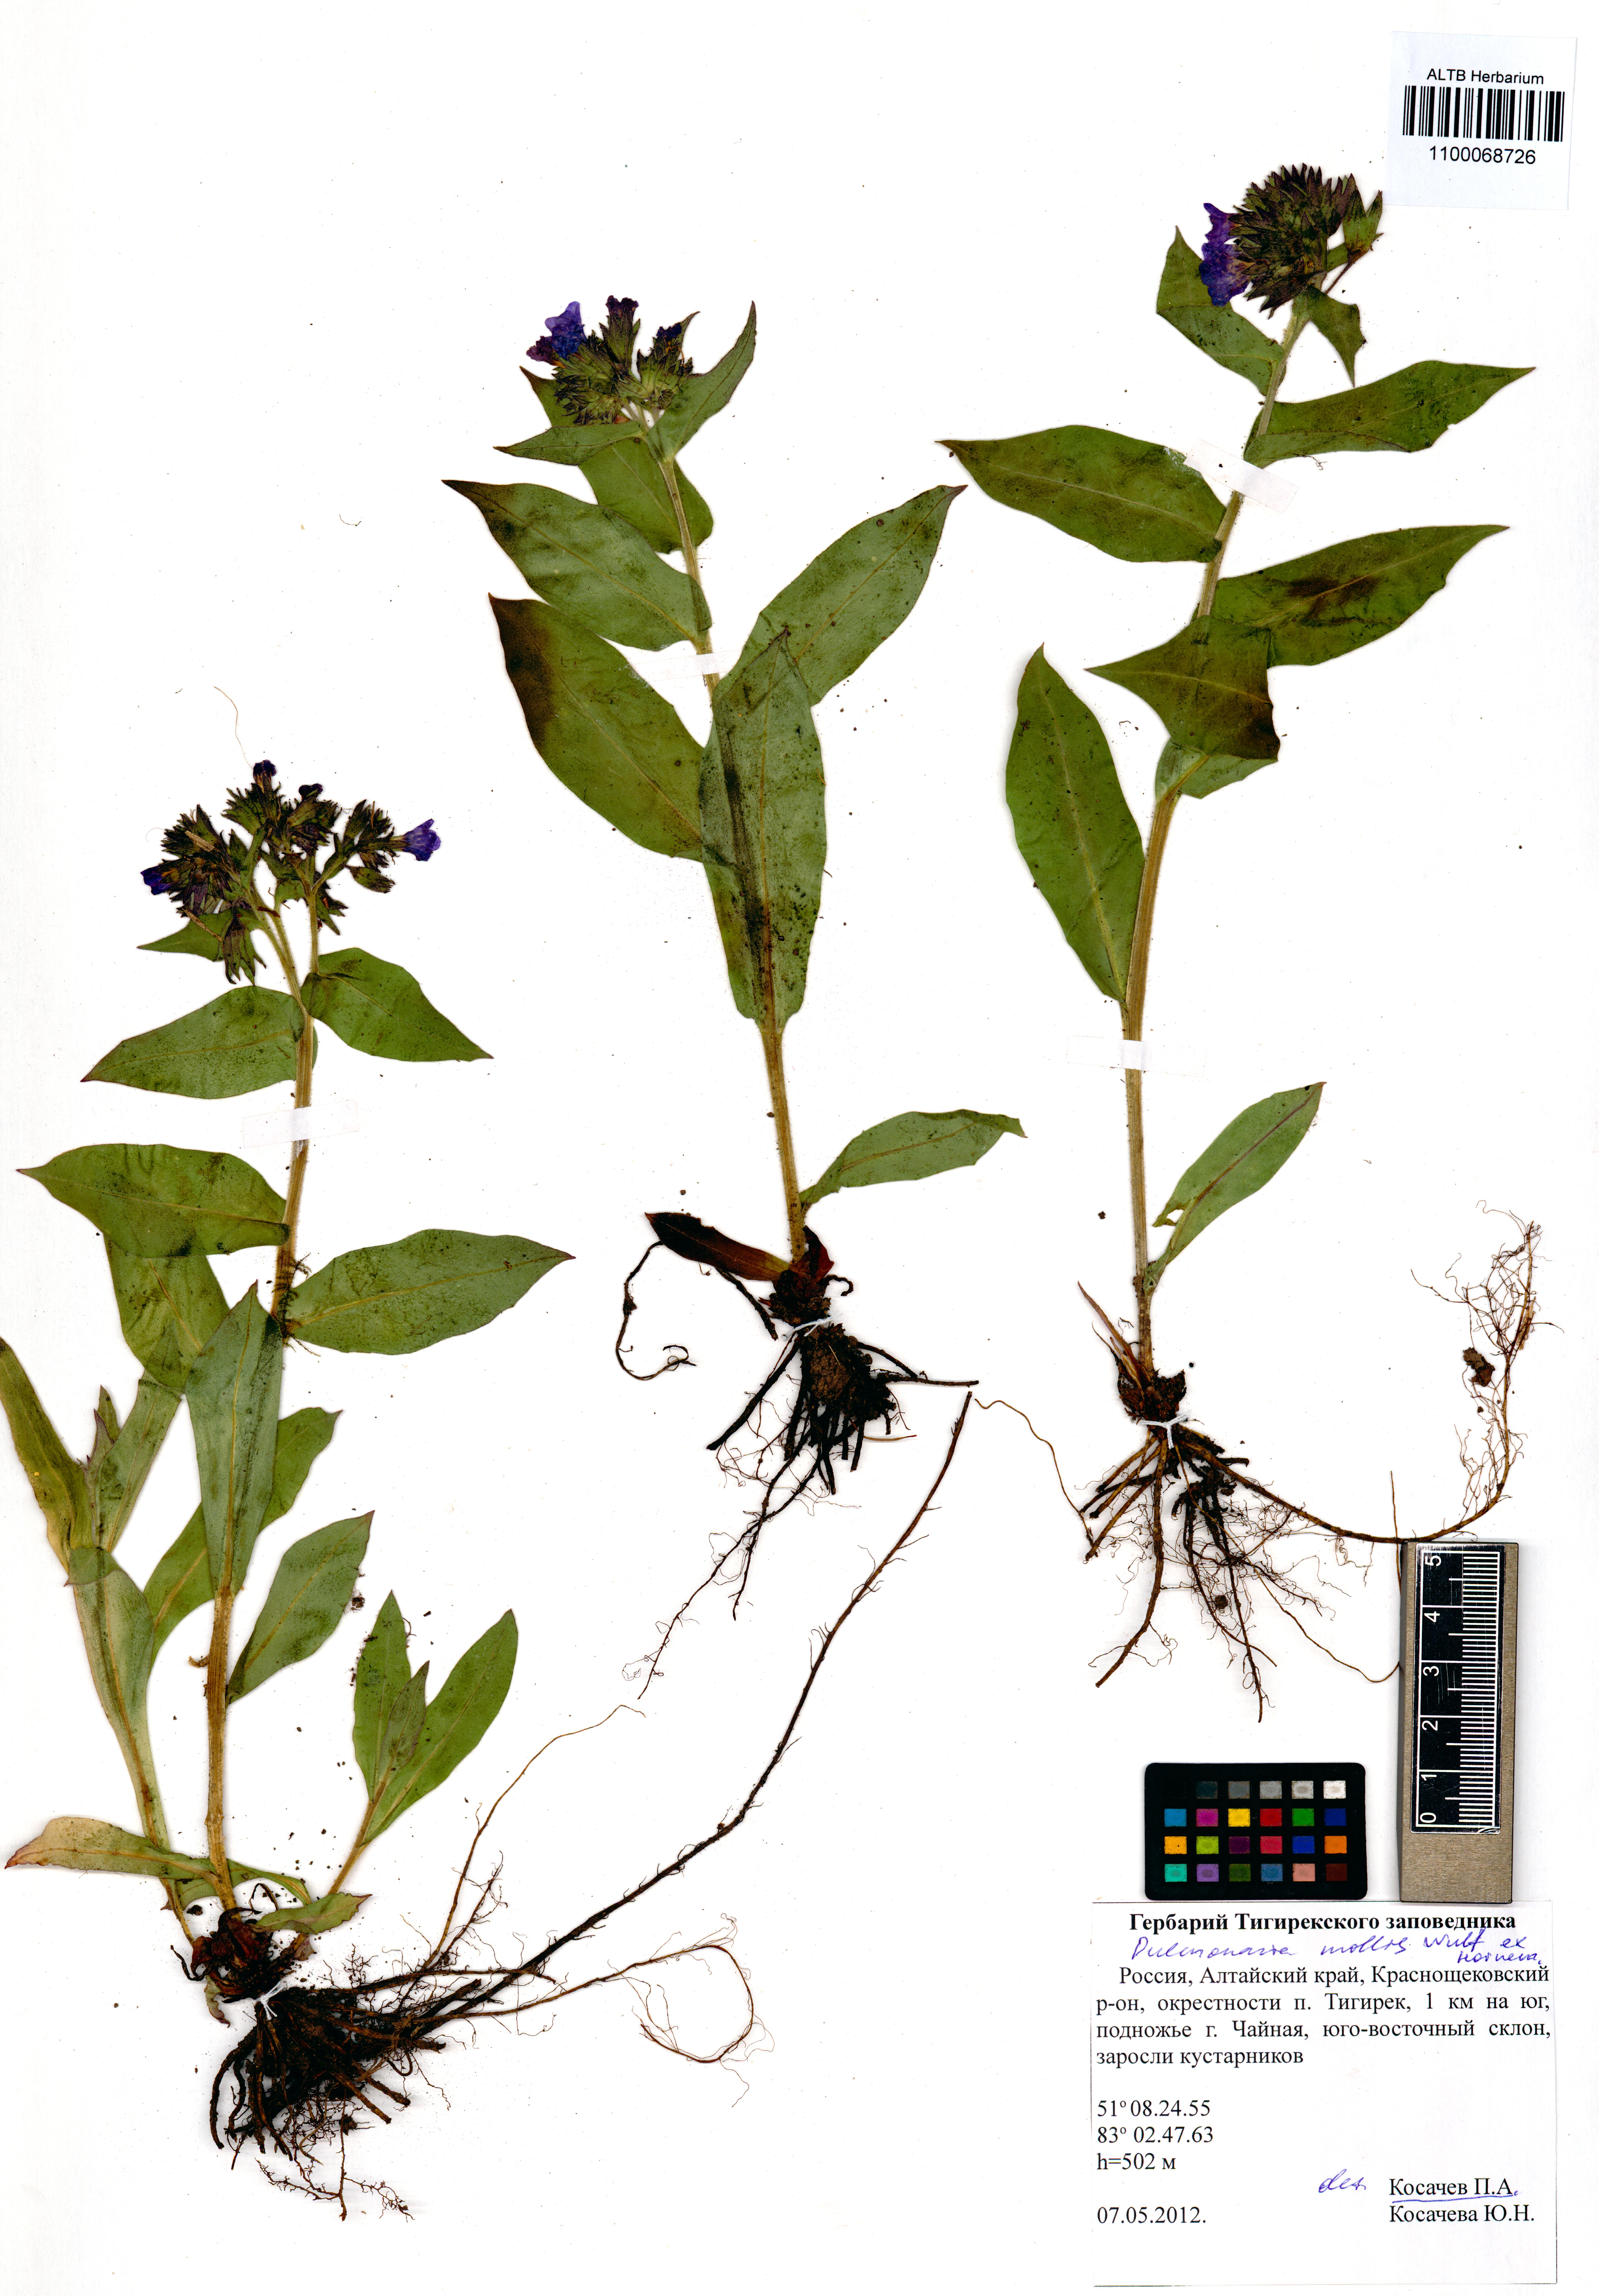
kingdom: Plantae
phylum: Tracheophyta
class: Magnoliopsida
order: Boraginales
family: Boraginaceae
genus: Pulmonaria
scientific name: Pulmonaria mollis
